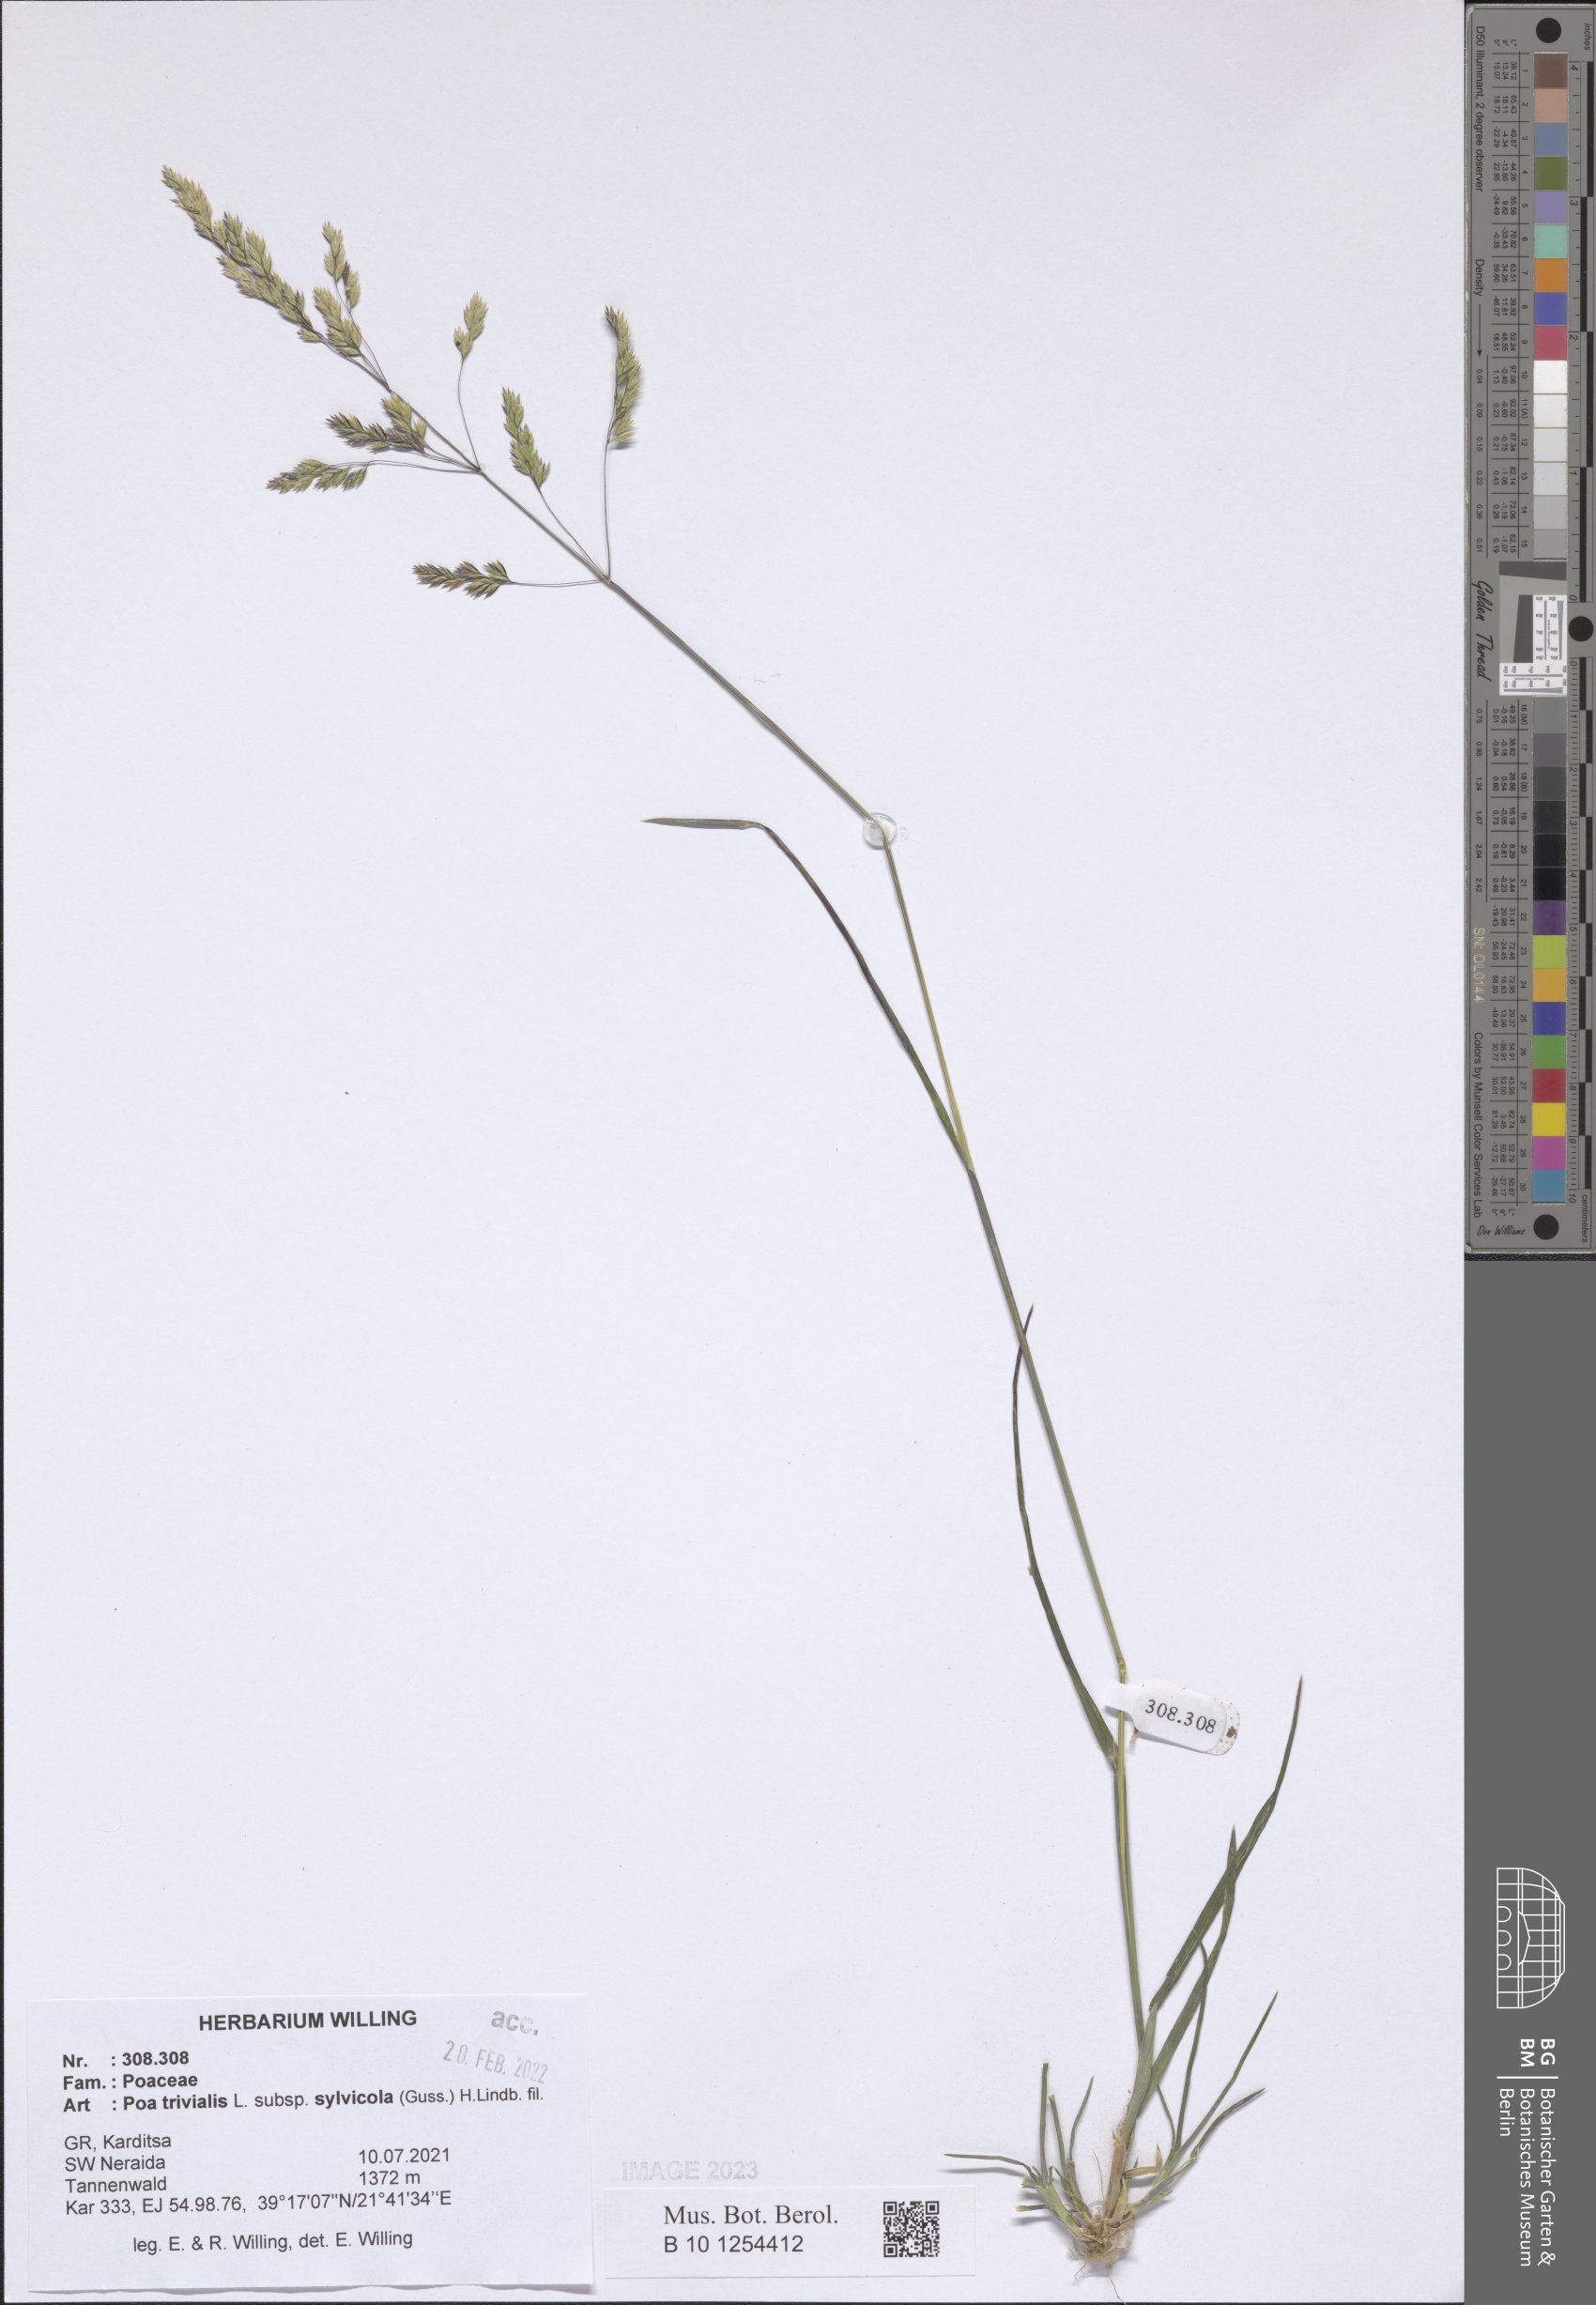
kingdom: Plantae
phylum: Tracheophyta
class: Liliopsida
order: Poales
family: Poaceae
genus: Poa
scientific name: Poa trivialis
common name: Rough bluegrass
